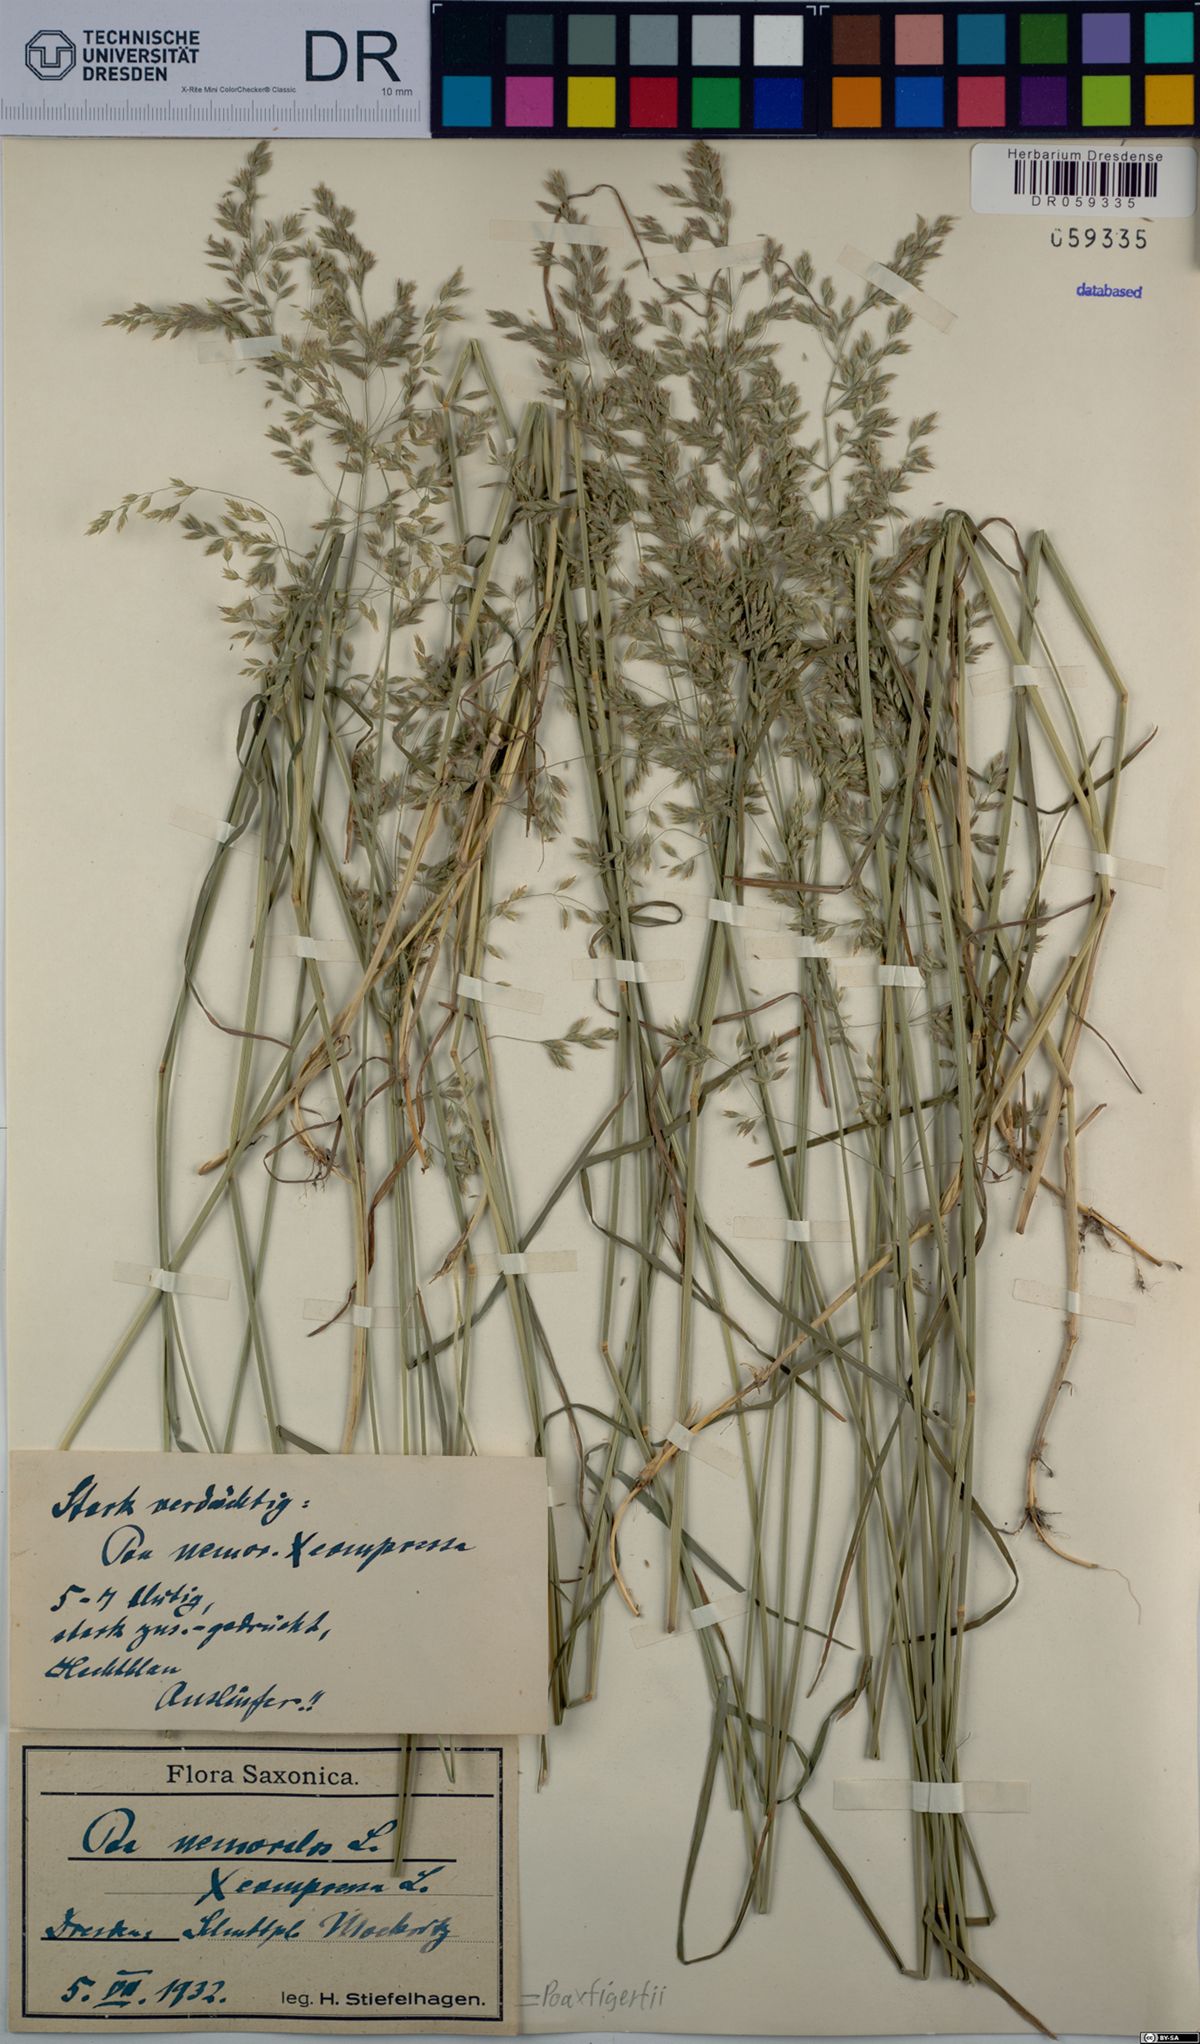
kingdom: Plantae
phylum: Tracheophyta
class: Liliopsida
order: Poales
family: Poaceae
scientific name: Poaceae
